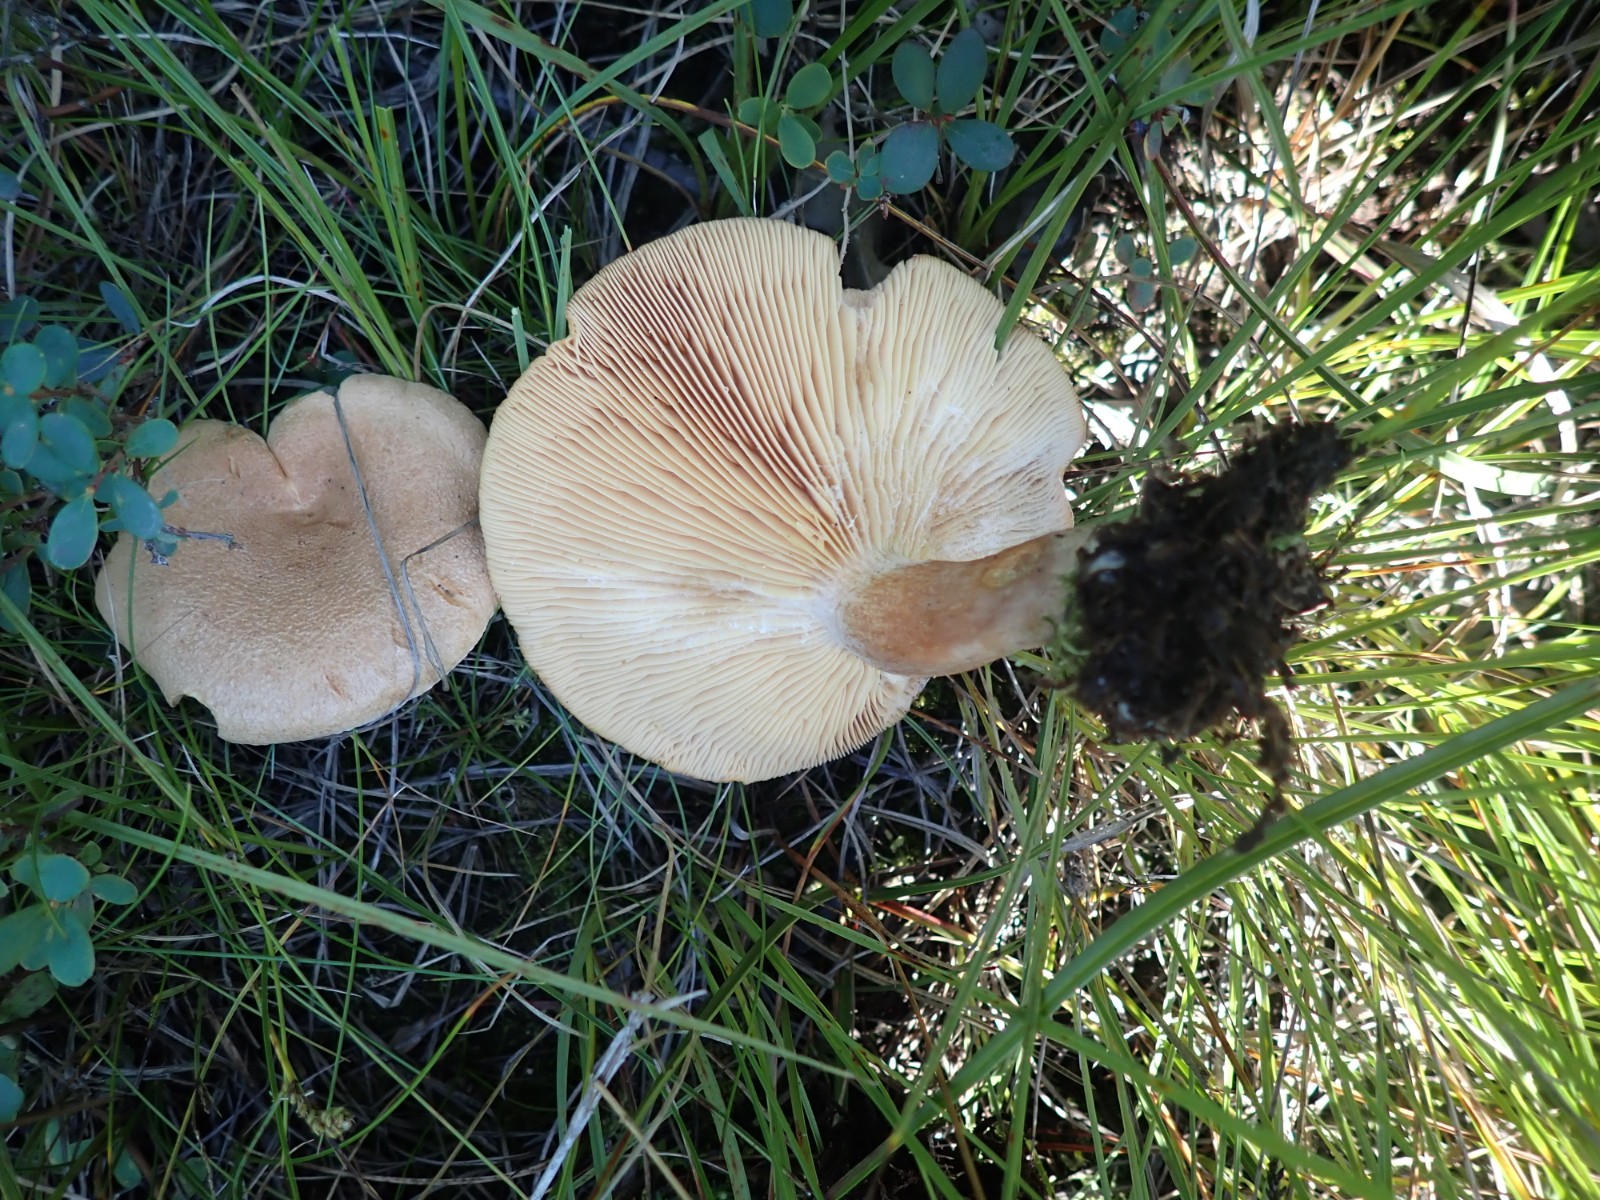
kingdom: Fungi
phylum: Basidiomycota
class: Agaricomycetes
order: Russulales
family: Russulaceae
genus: Lactarius
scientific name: Lactarius helvus
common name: mose-mælkehat
